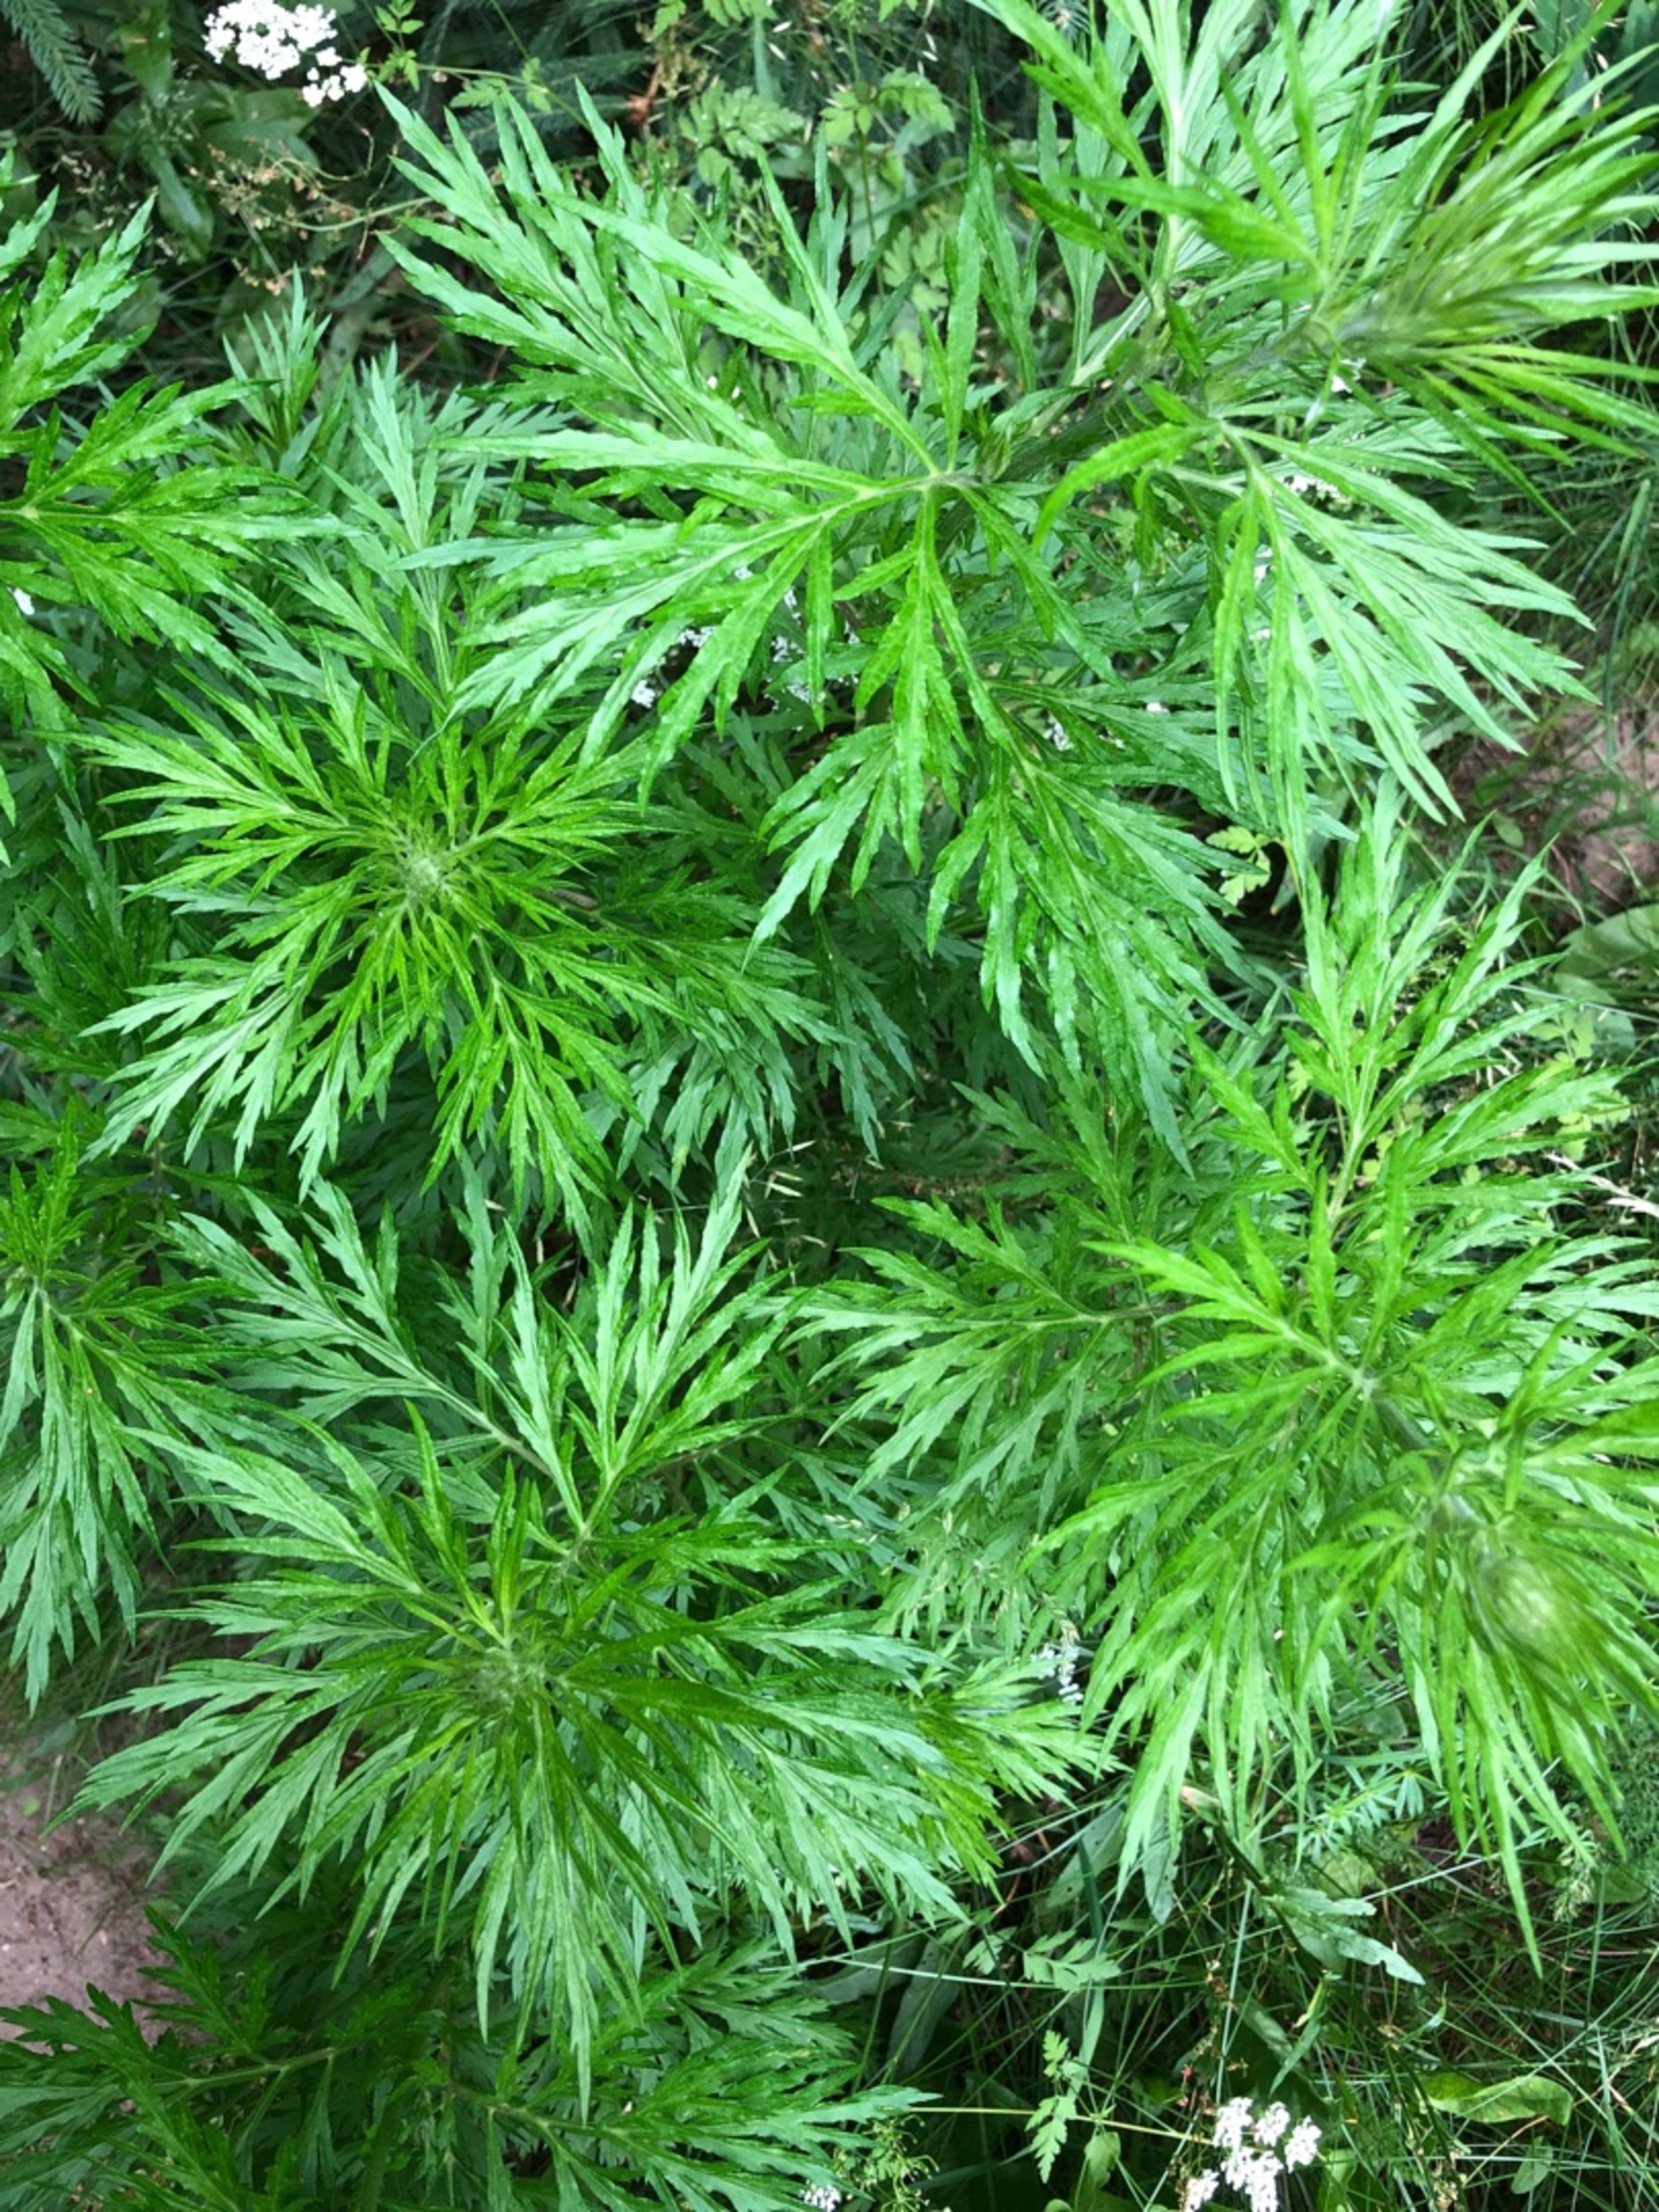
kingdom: Plantae
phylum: Tracheophyta
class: Magnoliopsida
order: Asterales
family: Asteraceae
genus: Artemisia
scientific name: Artemisia vulgaris
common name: Grå-bynke
